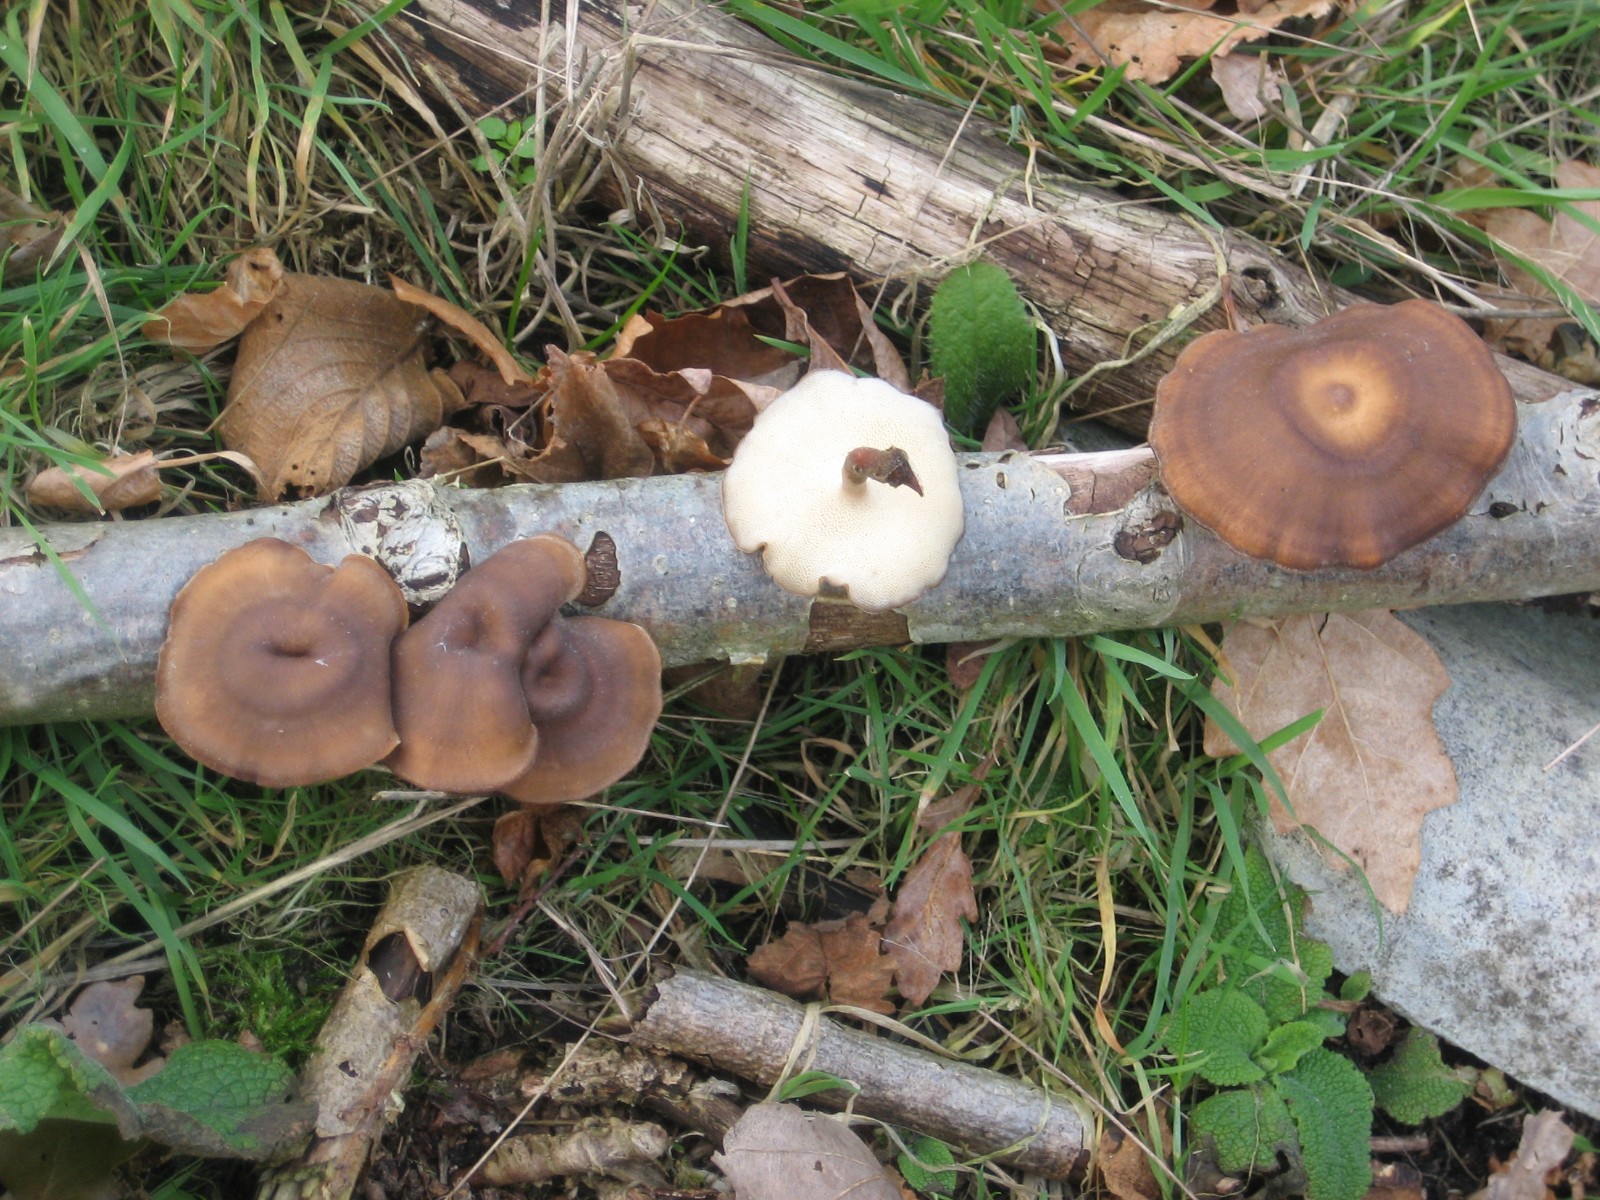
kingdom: Fungi
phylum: Basidiomycota
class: Agaricomycetes
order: Polyporales
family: Polyporaceae
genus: Lentinus
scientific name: Lentinus brumalis
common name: vinter-stilkporesvamp
